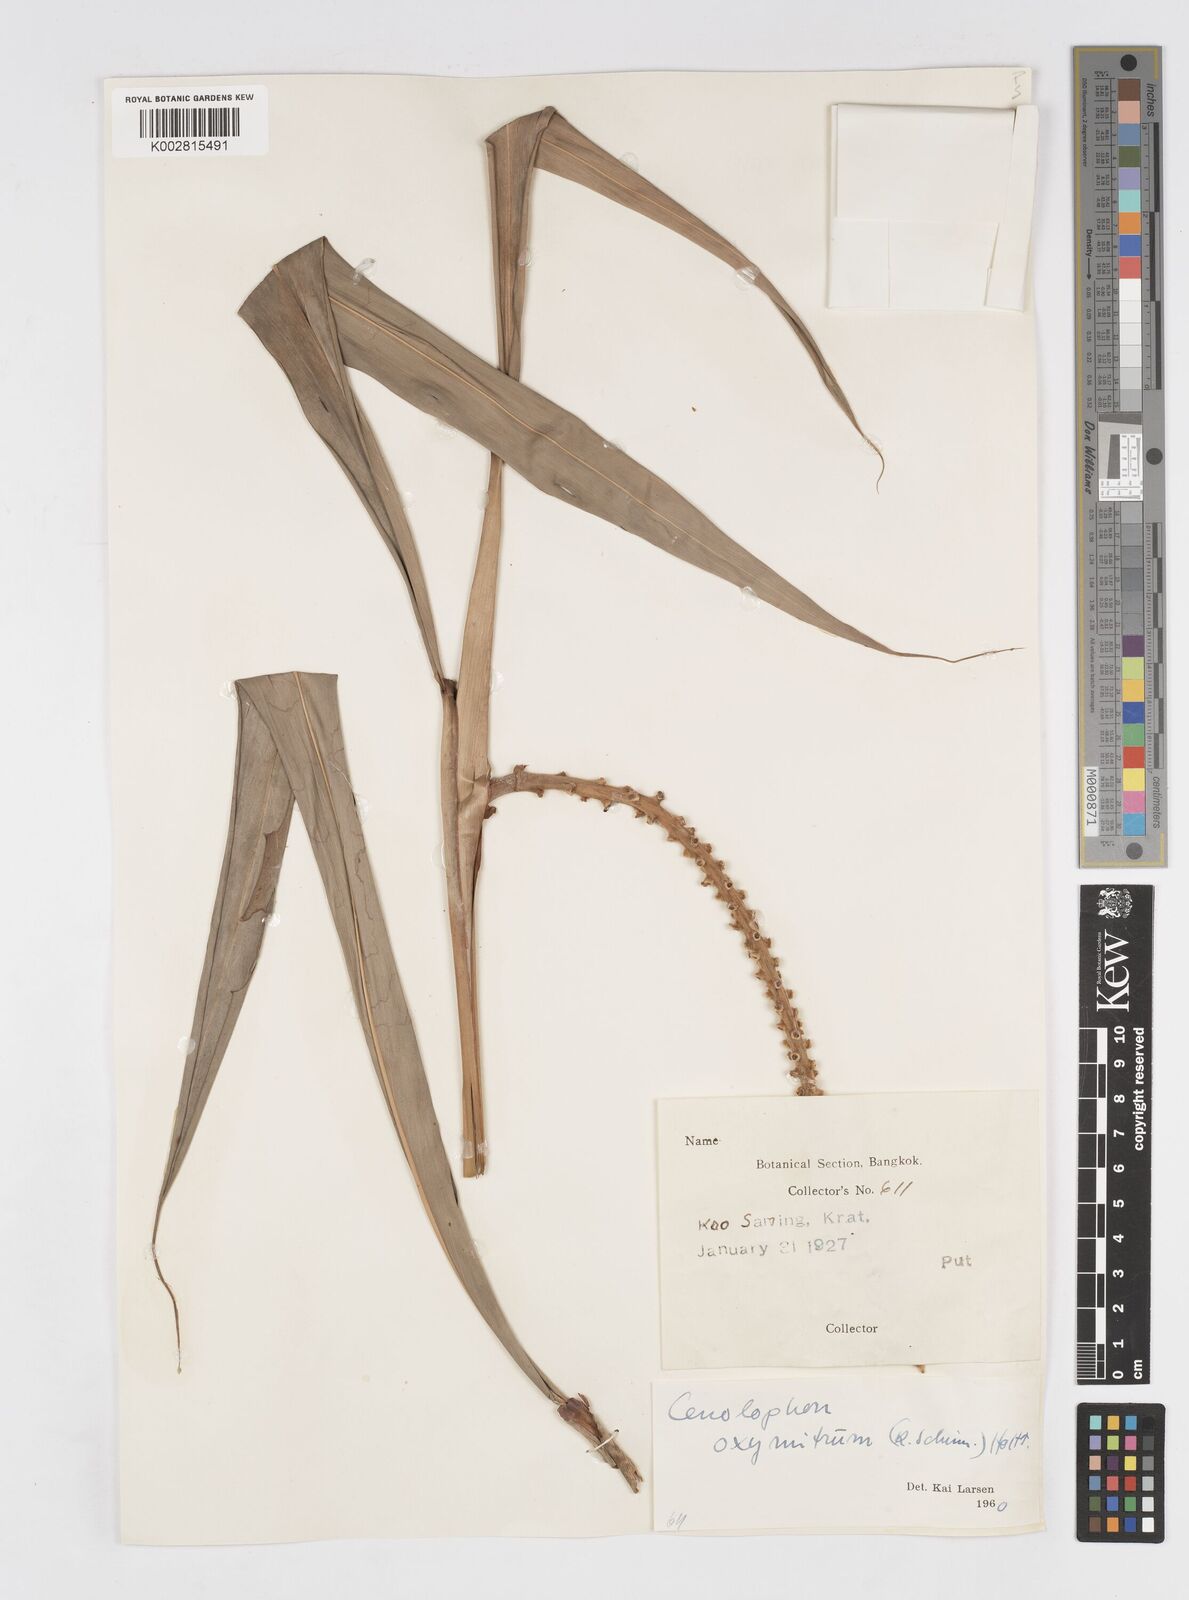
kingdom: Plantae
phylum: Tracheophyta
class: Liliopsida
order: Zingiberales
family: Zingiberaceae
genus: Alpinia
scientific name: Alpinia oxymitra
